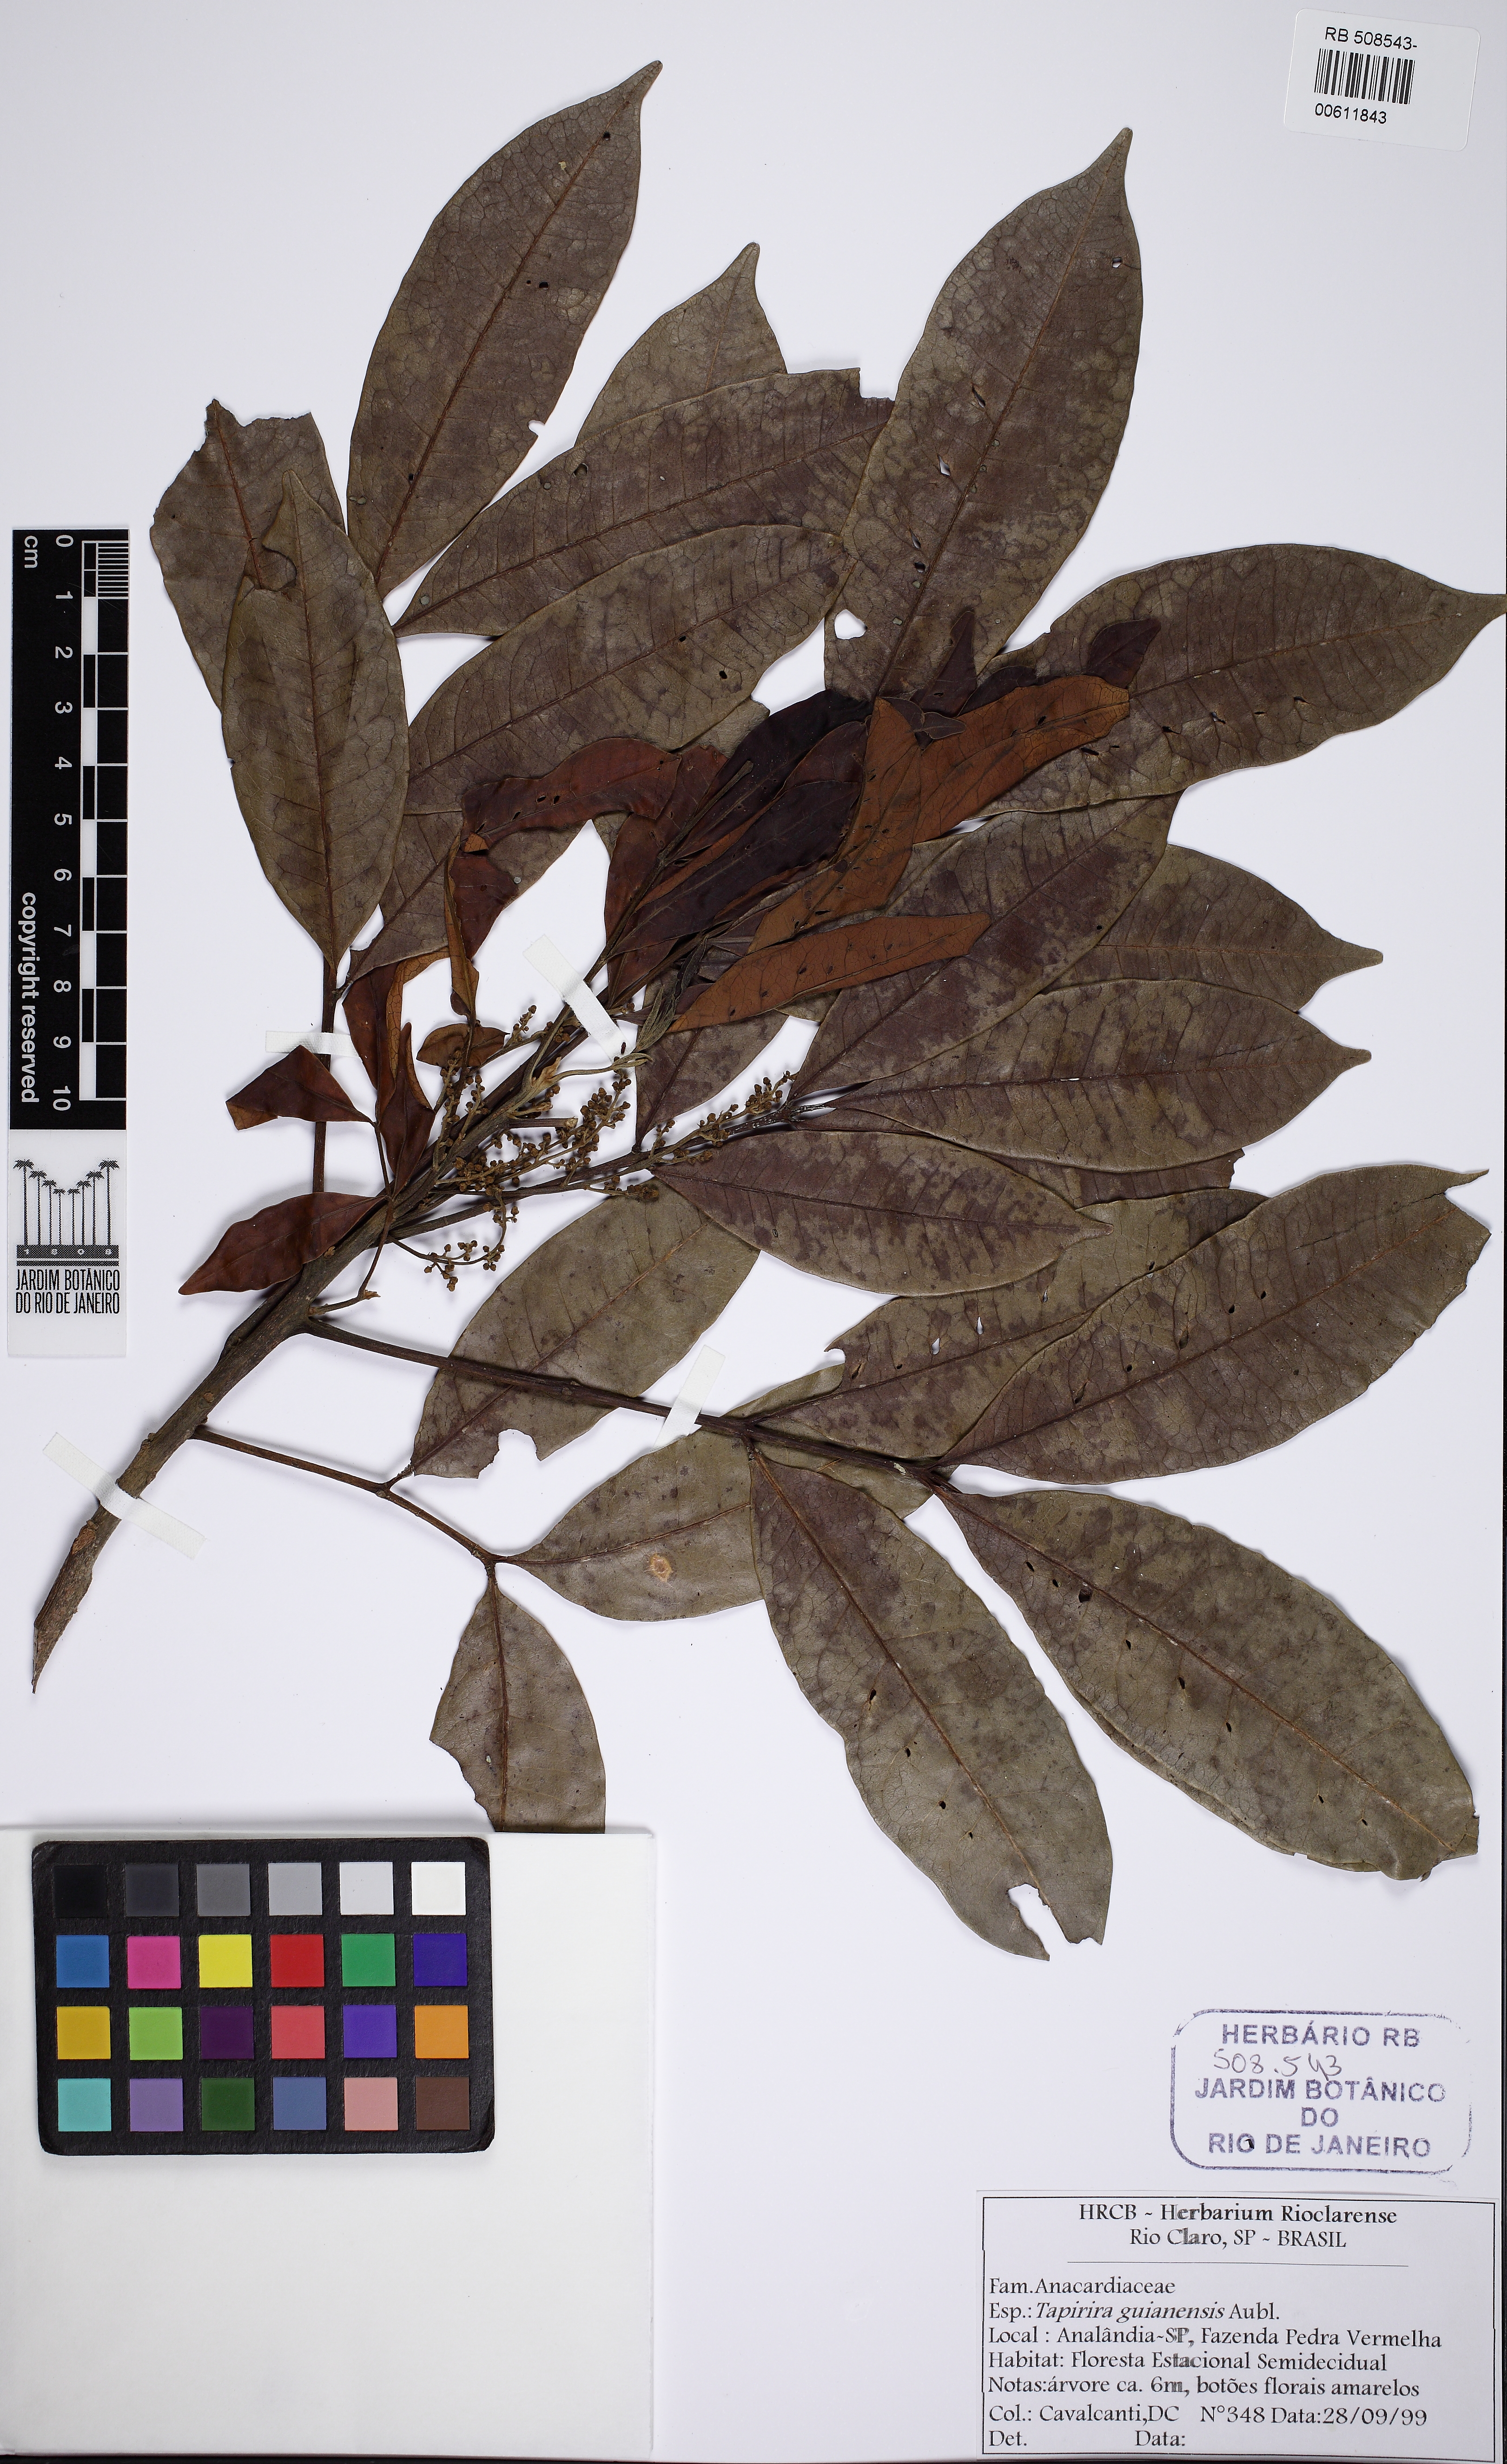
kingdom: Plantae
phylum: Tracheophyta
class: Magnoliopsida
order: Sapindales
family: Anacardiaceae
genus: Tapirira
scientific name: Tapirira guianensis
